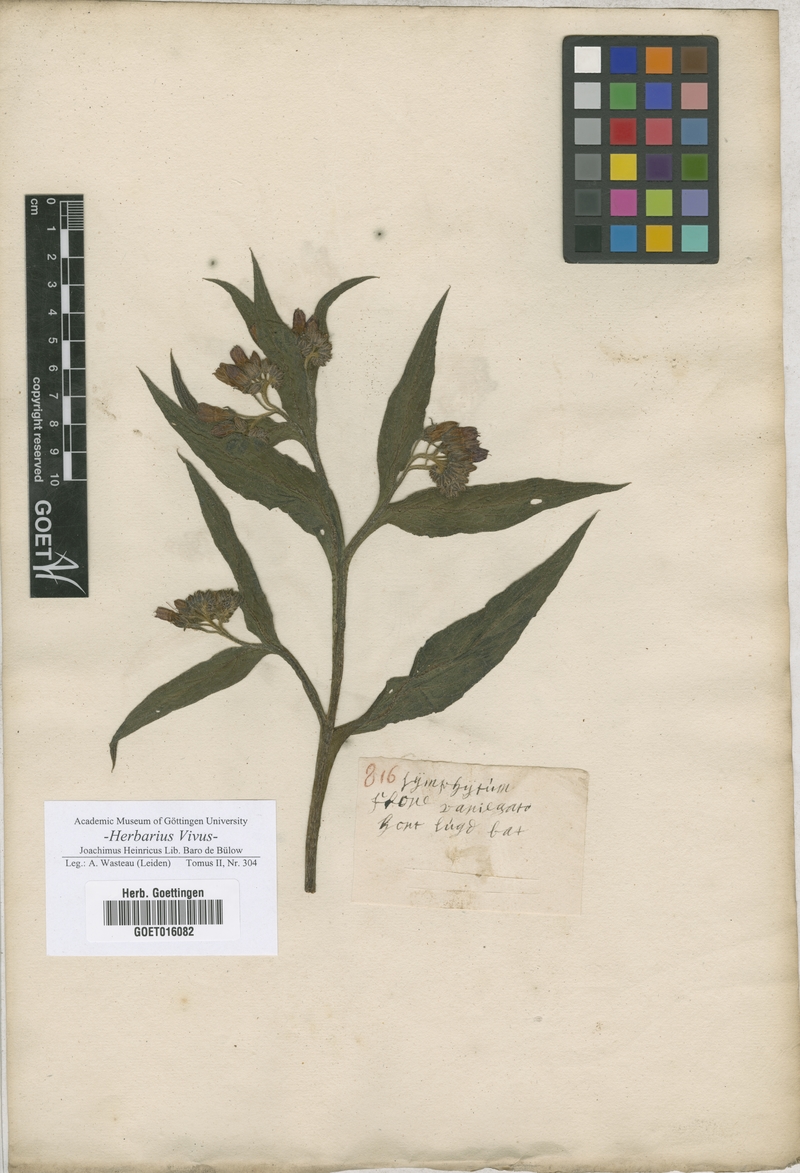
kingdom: Plantae
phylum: Tracheophyta
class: Magnoliopsida
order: Boraginales
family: Boraginaceae
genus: Symphytum
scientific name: Symphytum officinale
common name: Common comfrey
